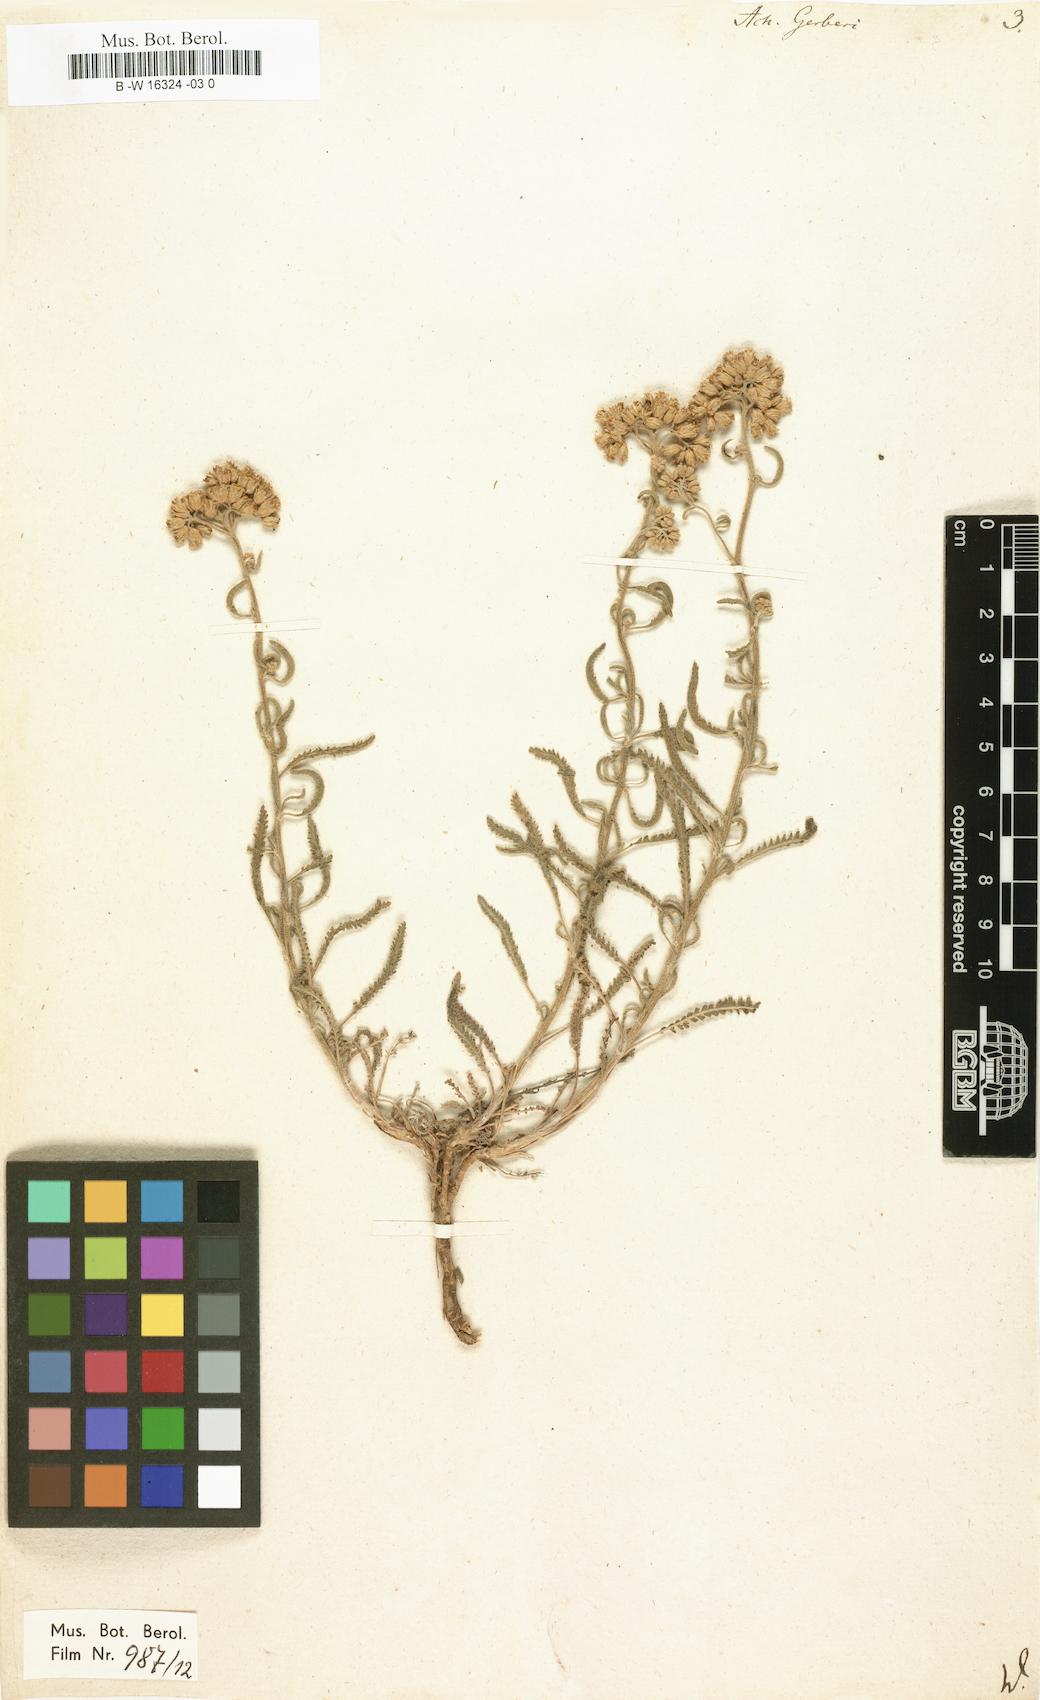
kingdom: Plantae
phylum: Tracheophyta
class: Magnoliopsida
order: Asterales
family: Asteraceae
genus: Achillea
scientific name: Achillea micrantha
